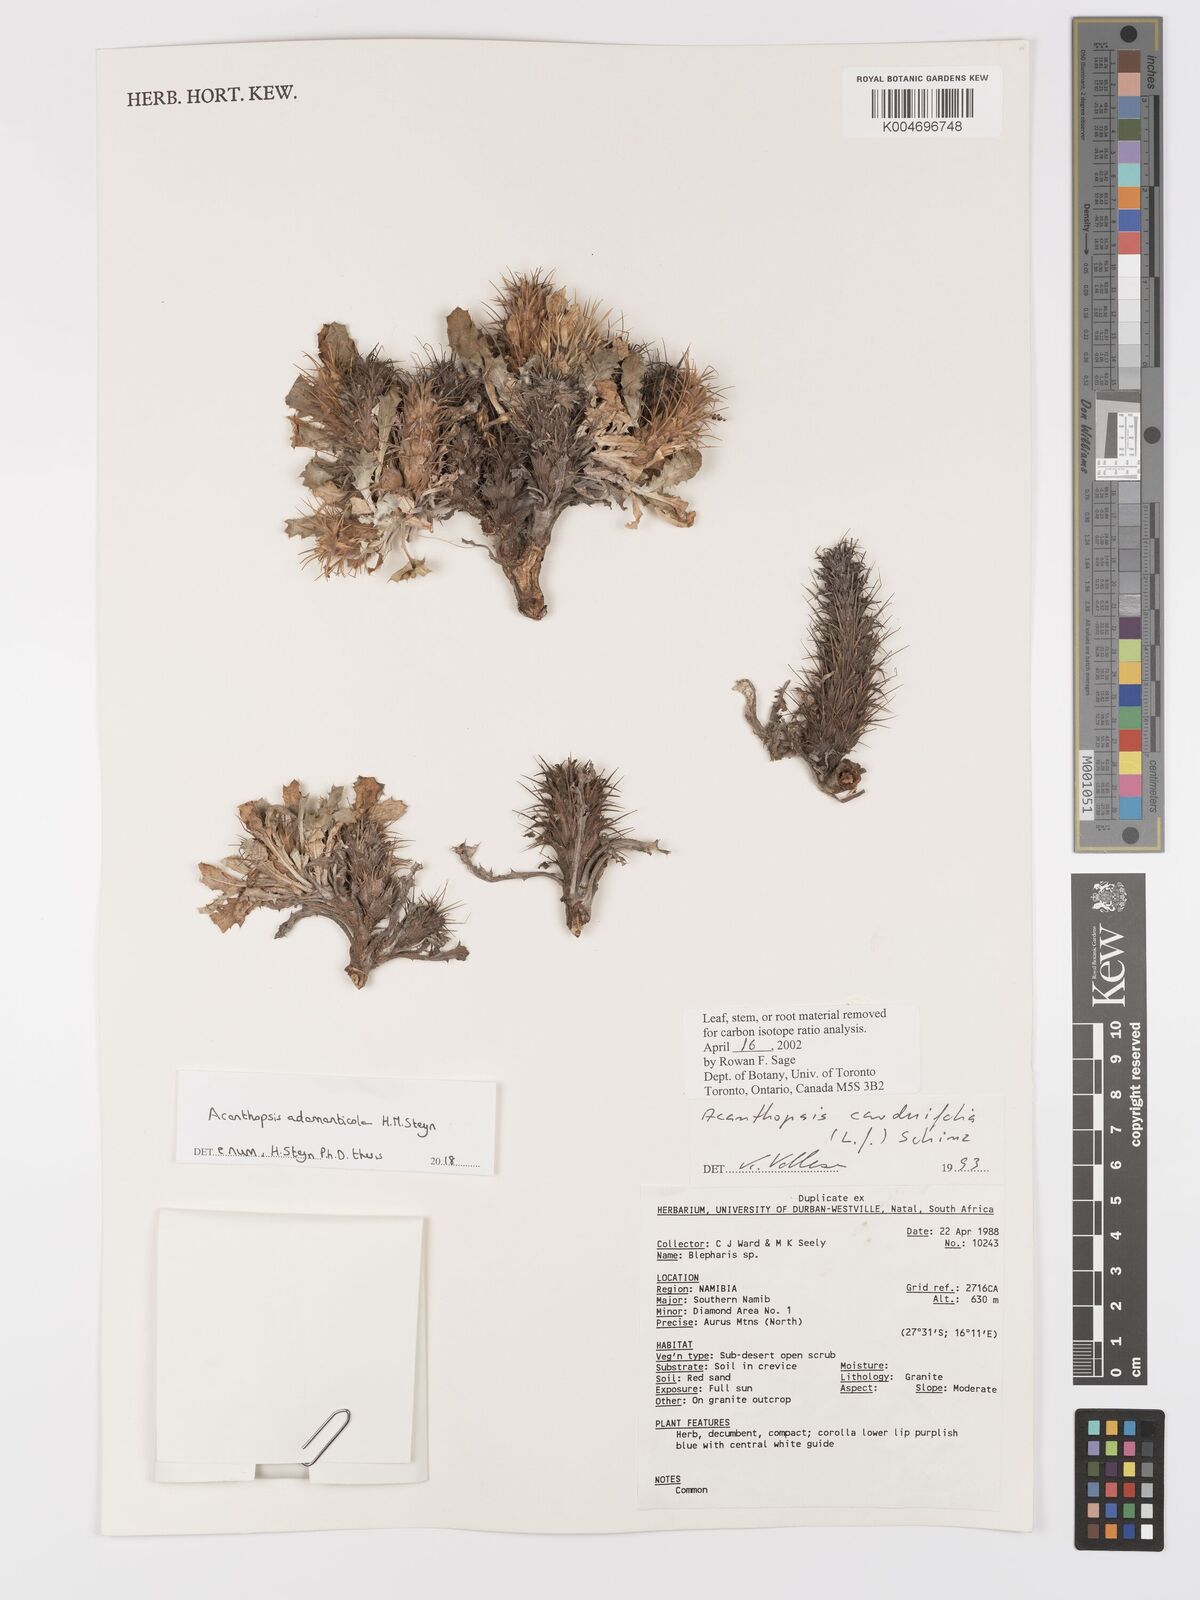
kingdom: Plantae
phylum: Tracheophyta
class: Magnoliopsida
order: Lamiales
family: Acanthaceae
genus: Acanthopsis
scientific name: Acanthopsis carduifolia
